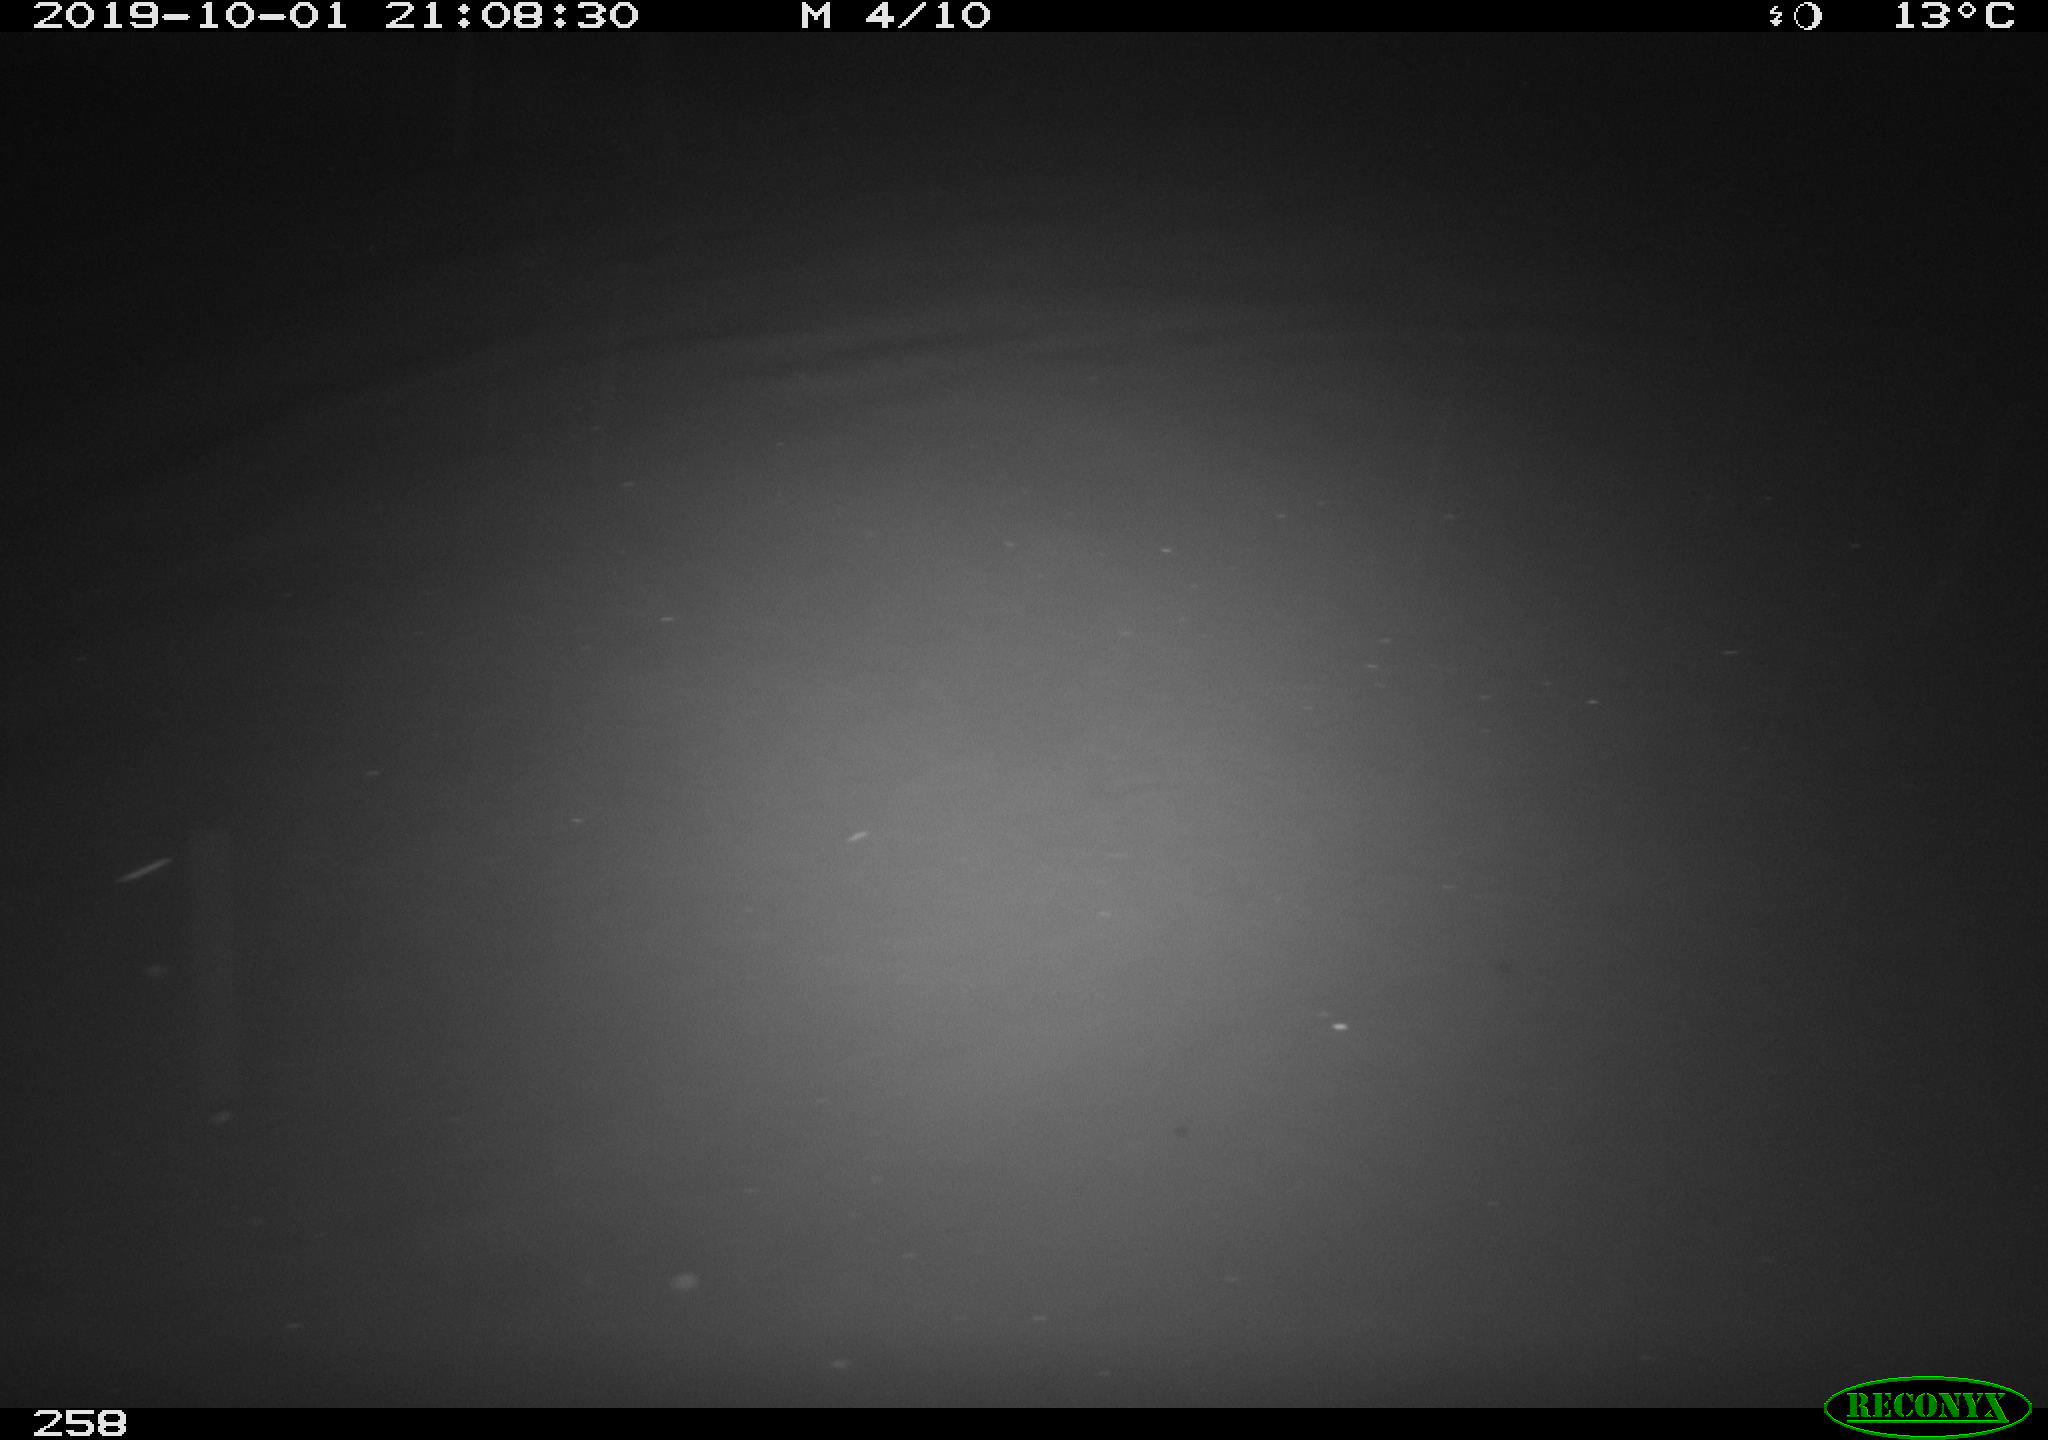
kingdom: Animalia
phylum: Chordata
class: Aves
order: Anseriformes
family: Anatidae
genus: Anas
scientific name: Anas platyrhynchos
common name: Mallard
